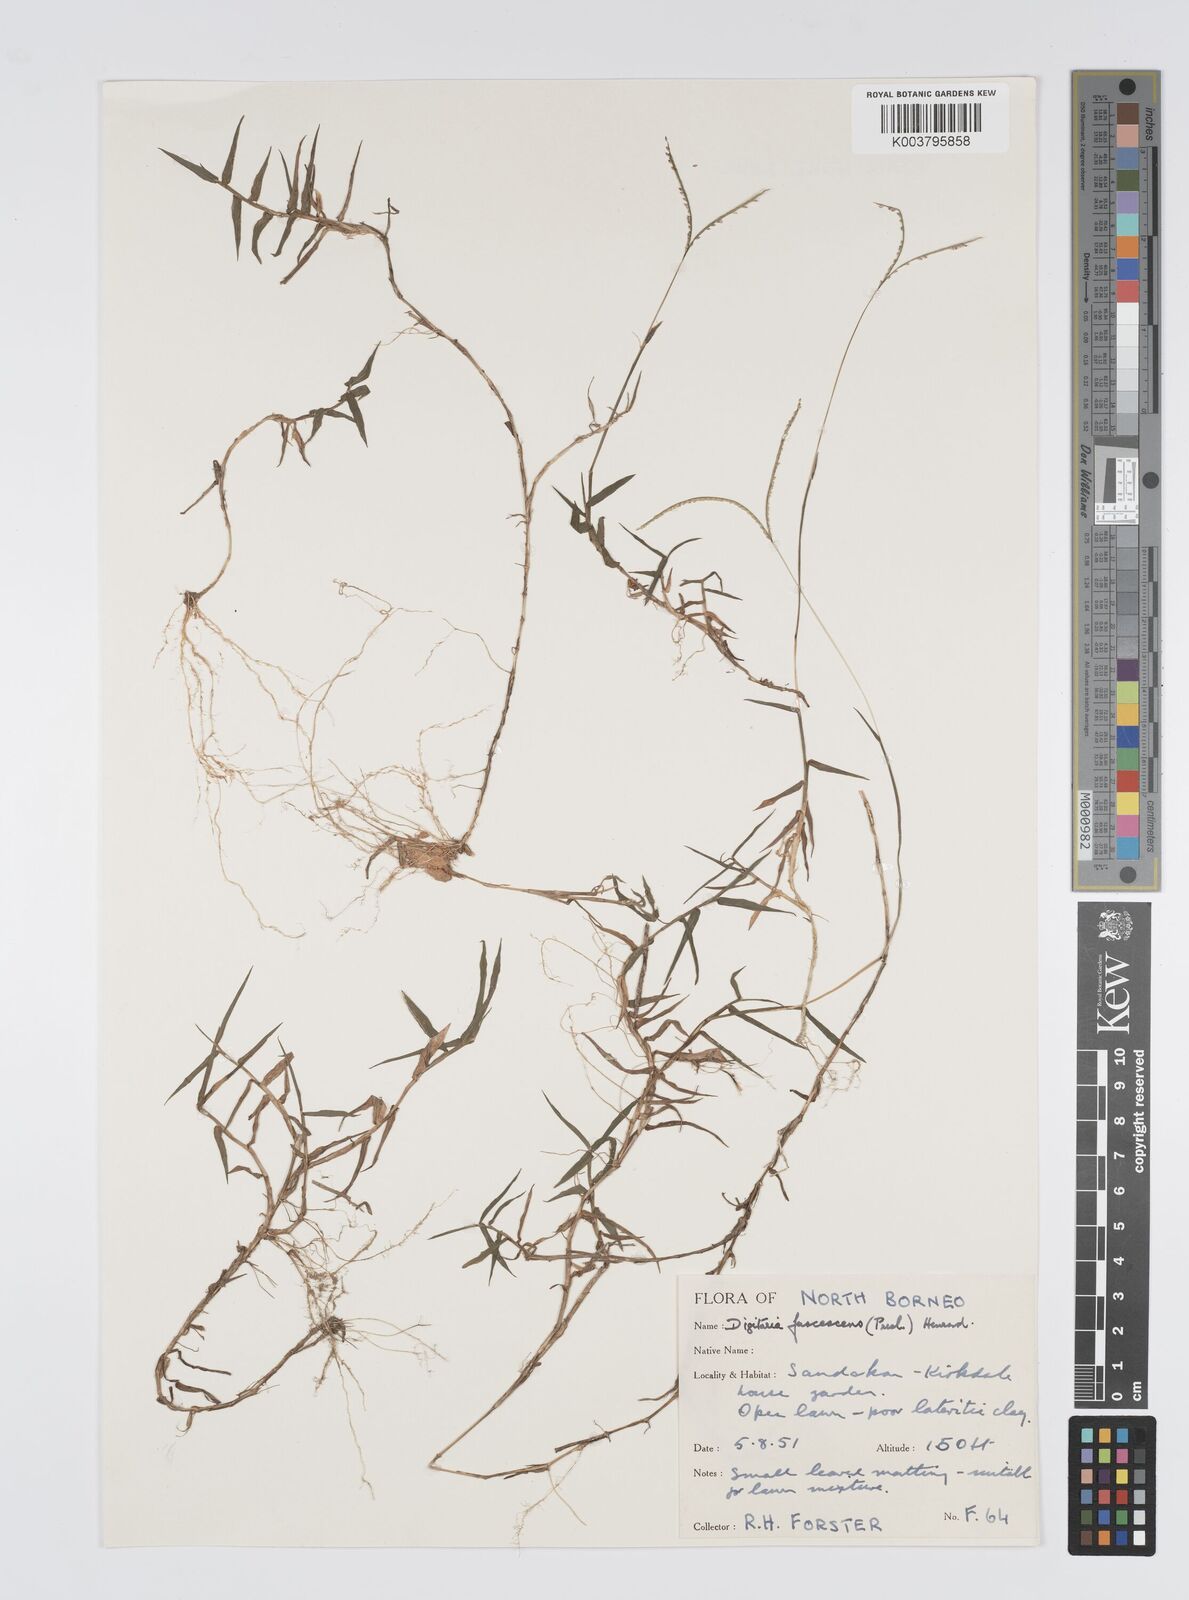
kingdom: Plantae
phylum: Tracheophyta
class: Liliopsida
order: Poales
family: Poaceae
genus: Digitaria
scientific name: Digitaria fuscescens
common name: Yellow crabgrass
